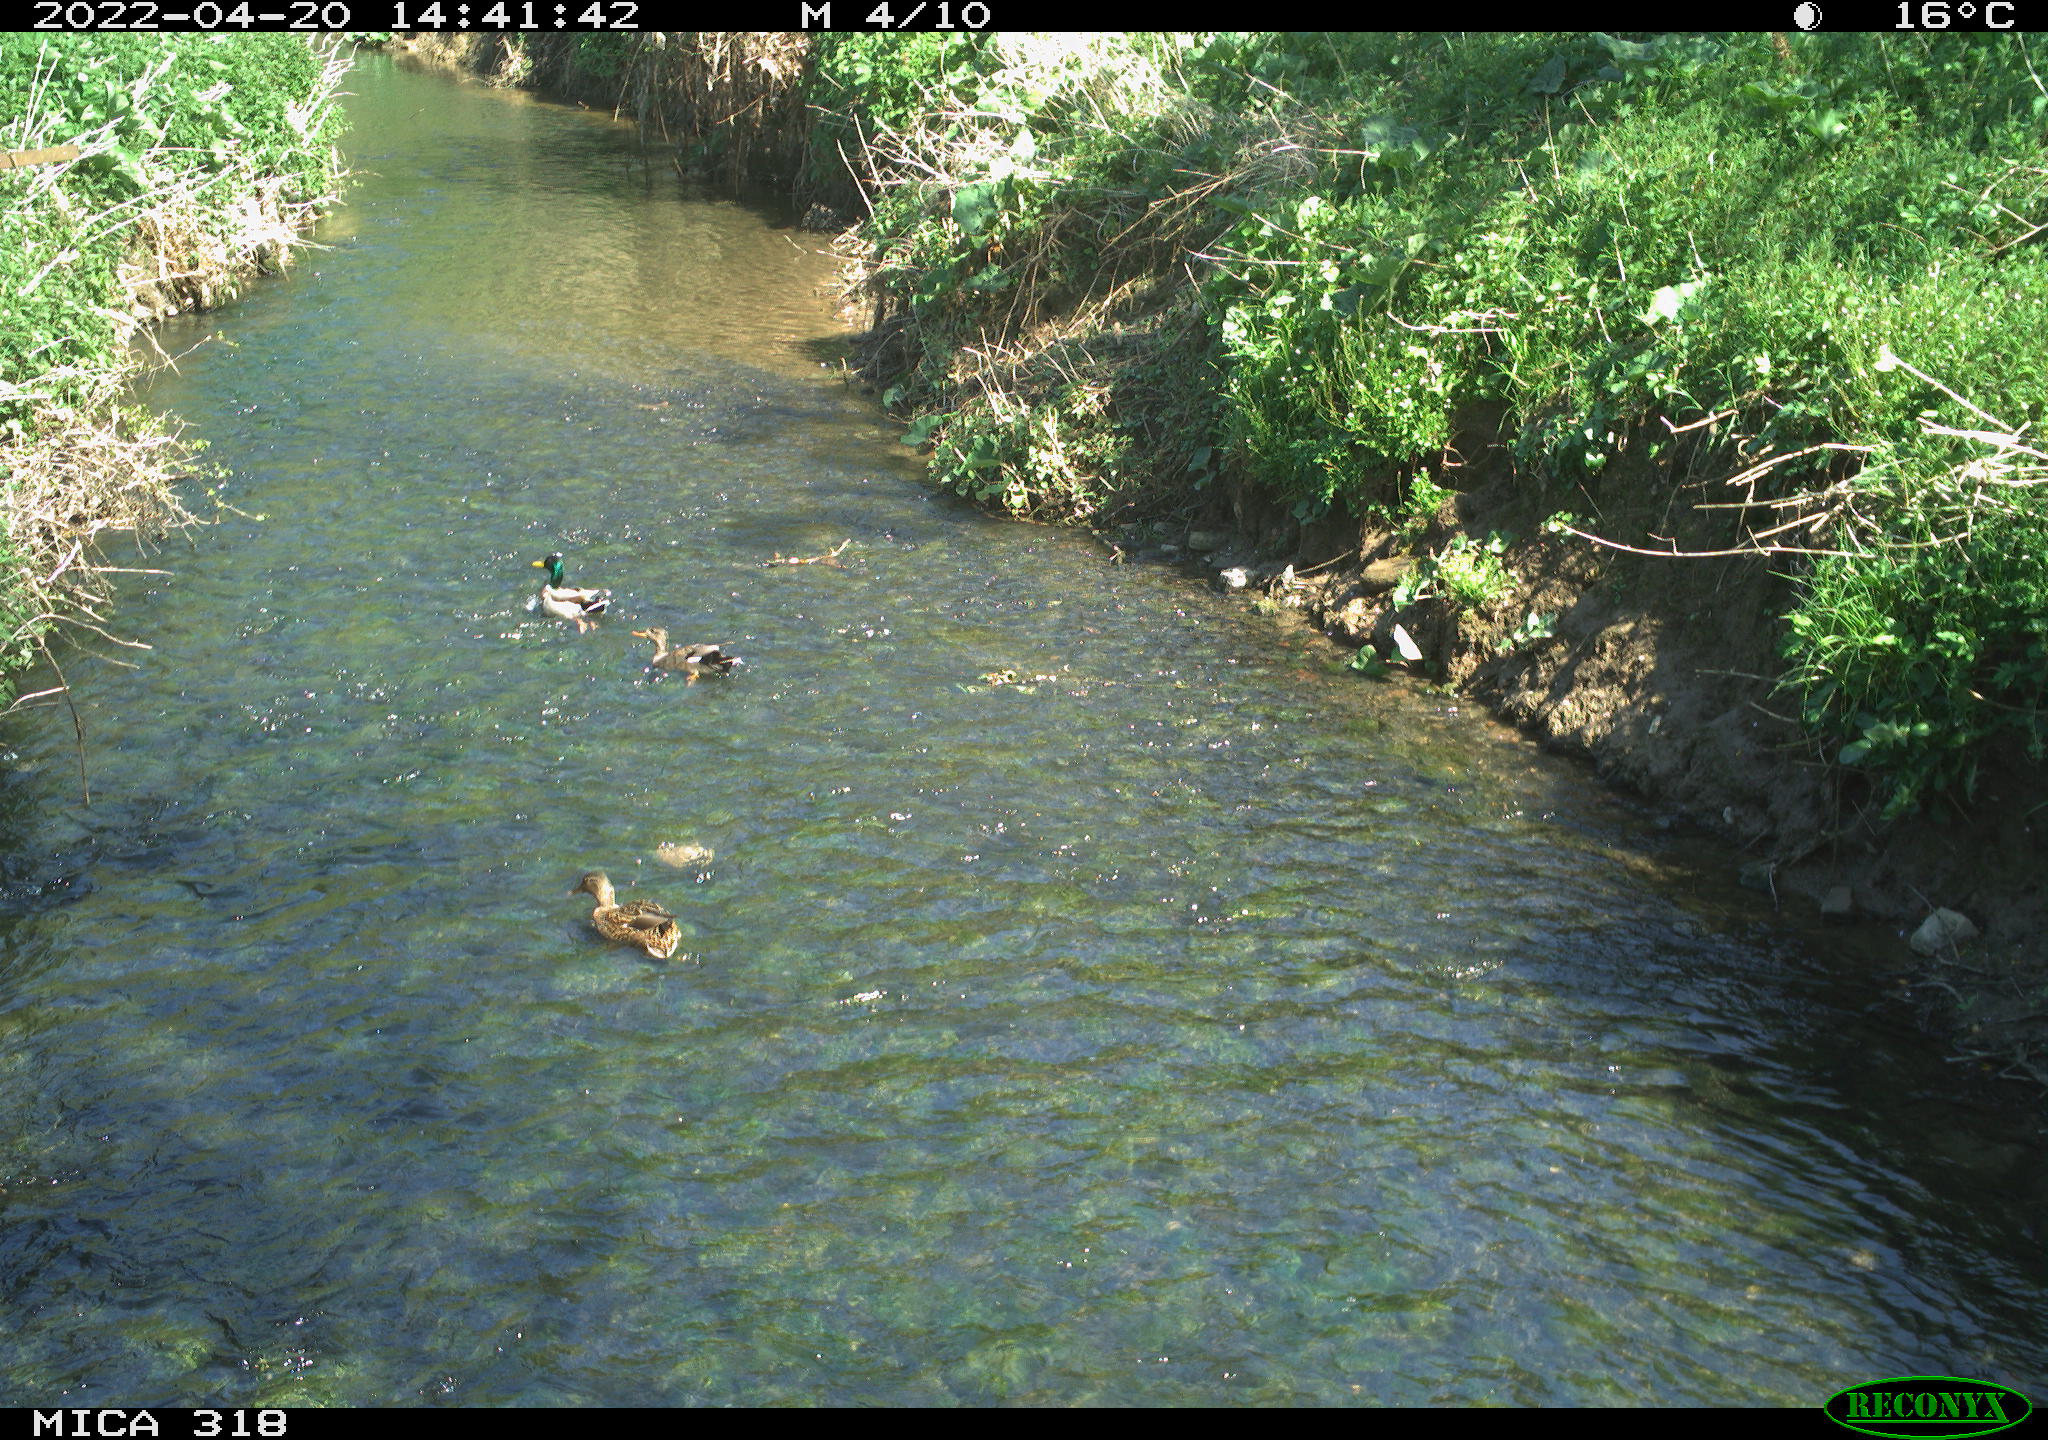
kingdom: Animalia
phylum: Chordata
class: Aves
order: Anseriformes
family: Anatidae
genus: Anas
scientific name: Anas platyrhynchos
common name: Mallard
